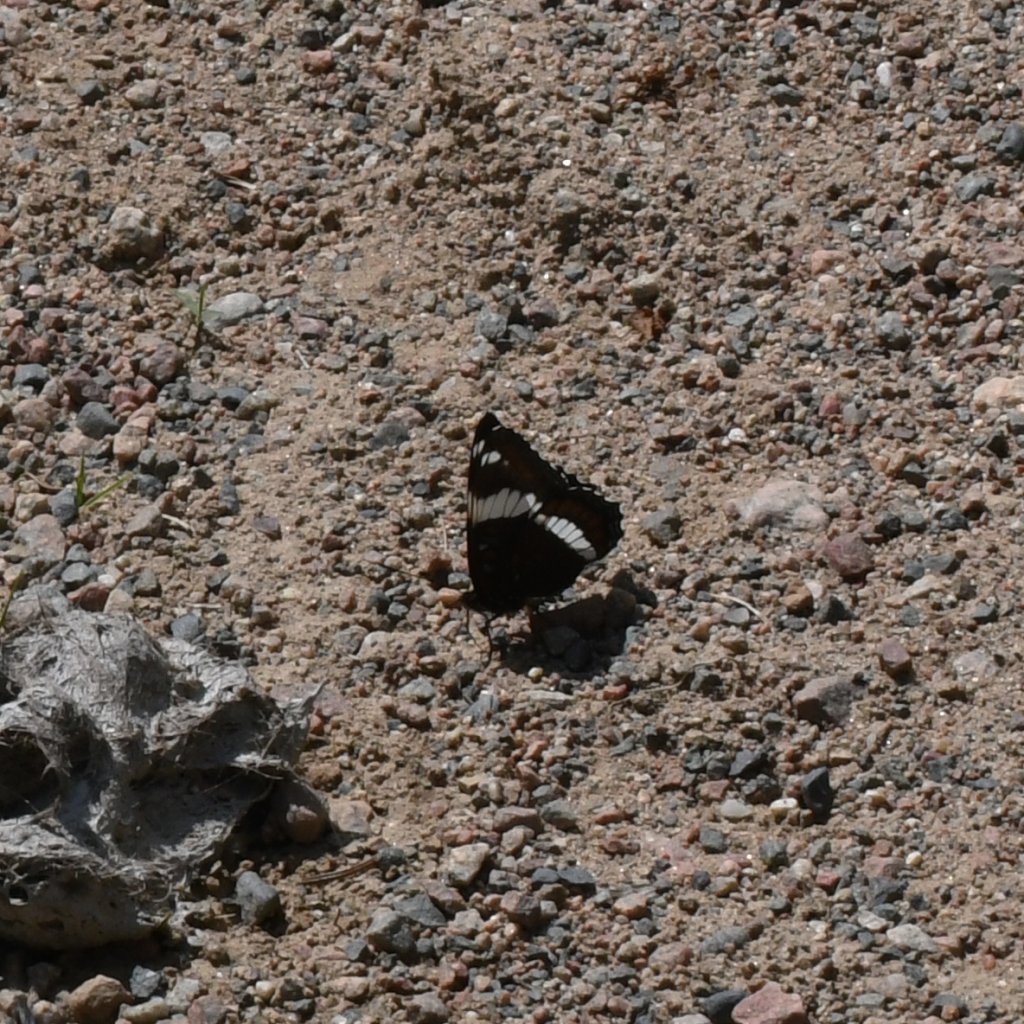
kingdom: Animalia
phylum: Arthropoda
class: Insecta
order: Lepidoptera
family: Nymphalidae
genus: Limenitis
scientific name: Limenitis arthemis
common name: Red-spotted Admiral
